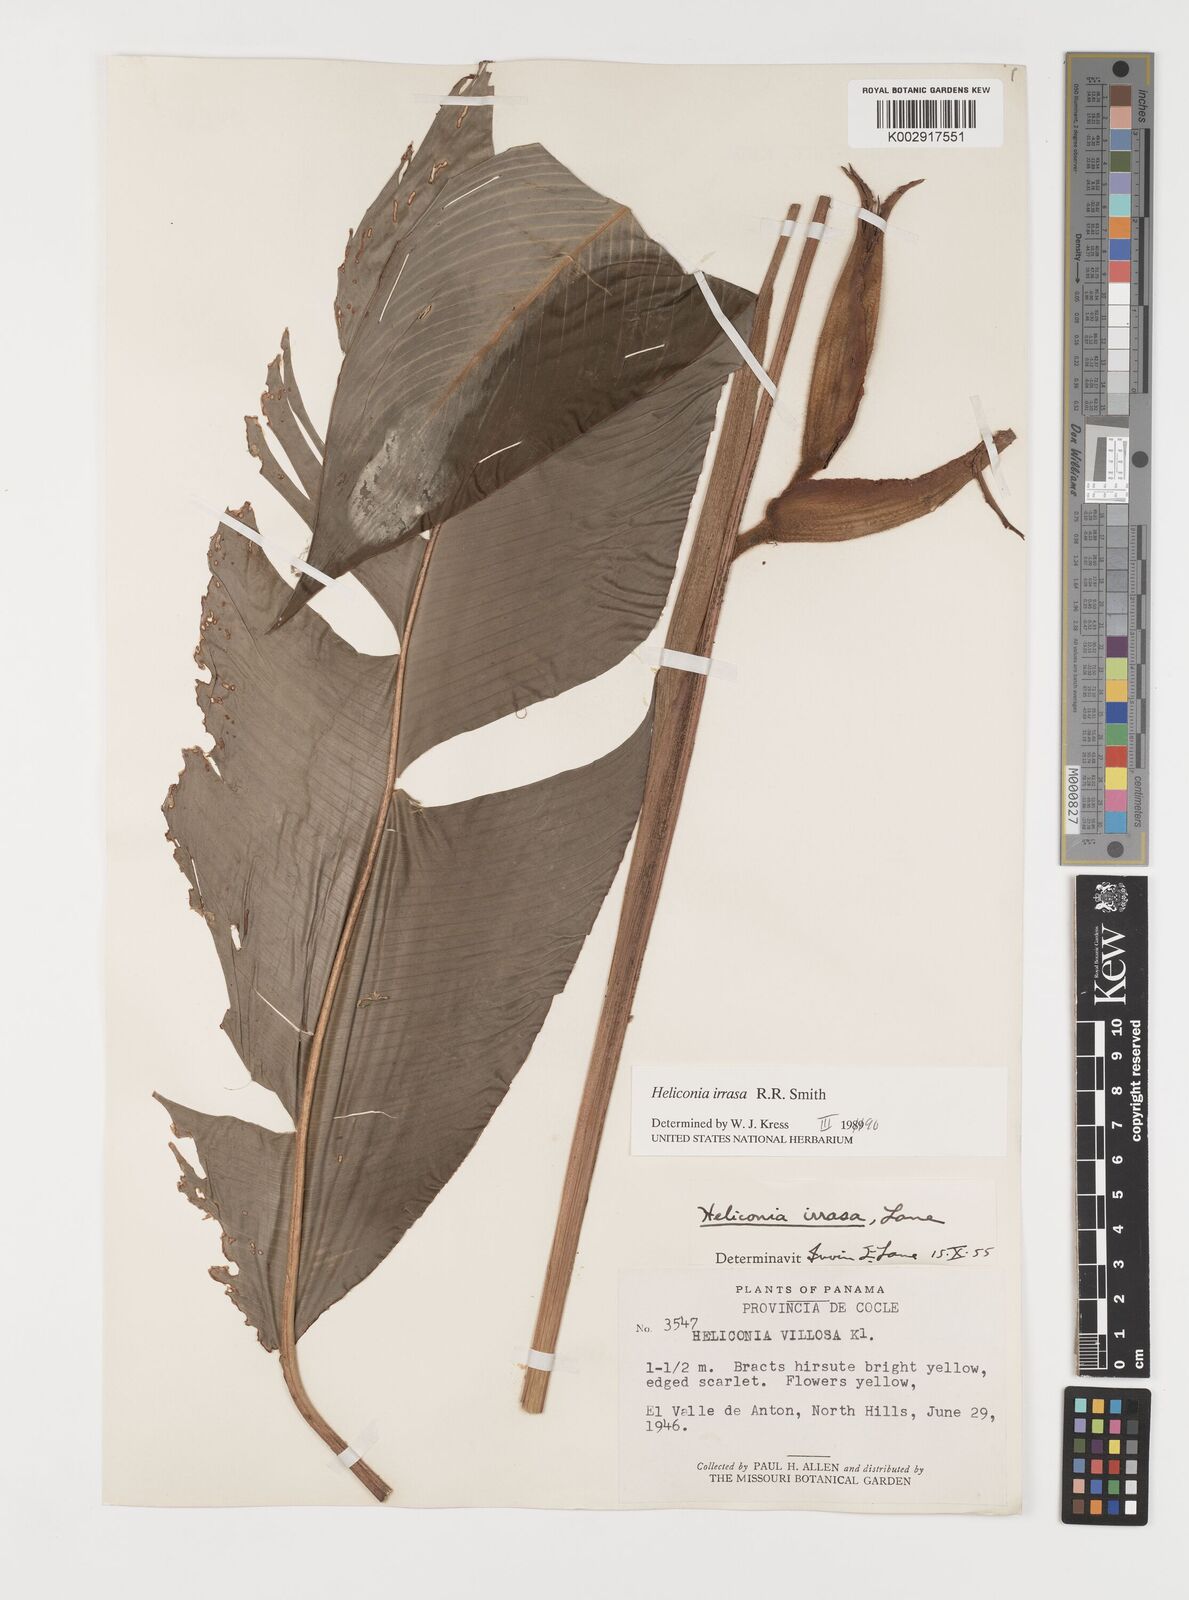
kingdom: Plantae
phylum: Tracheophyta
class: Liliopsida
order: Zingiberales
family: Heliconiaceae
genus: Heliconia
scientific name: Heliconia irrasa
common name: Wild plantain
